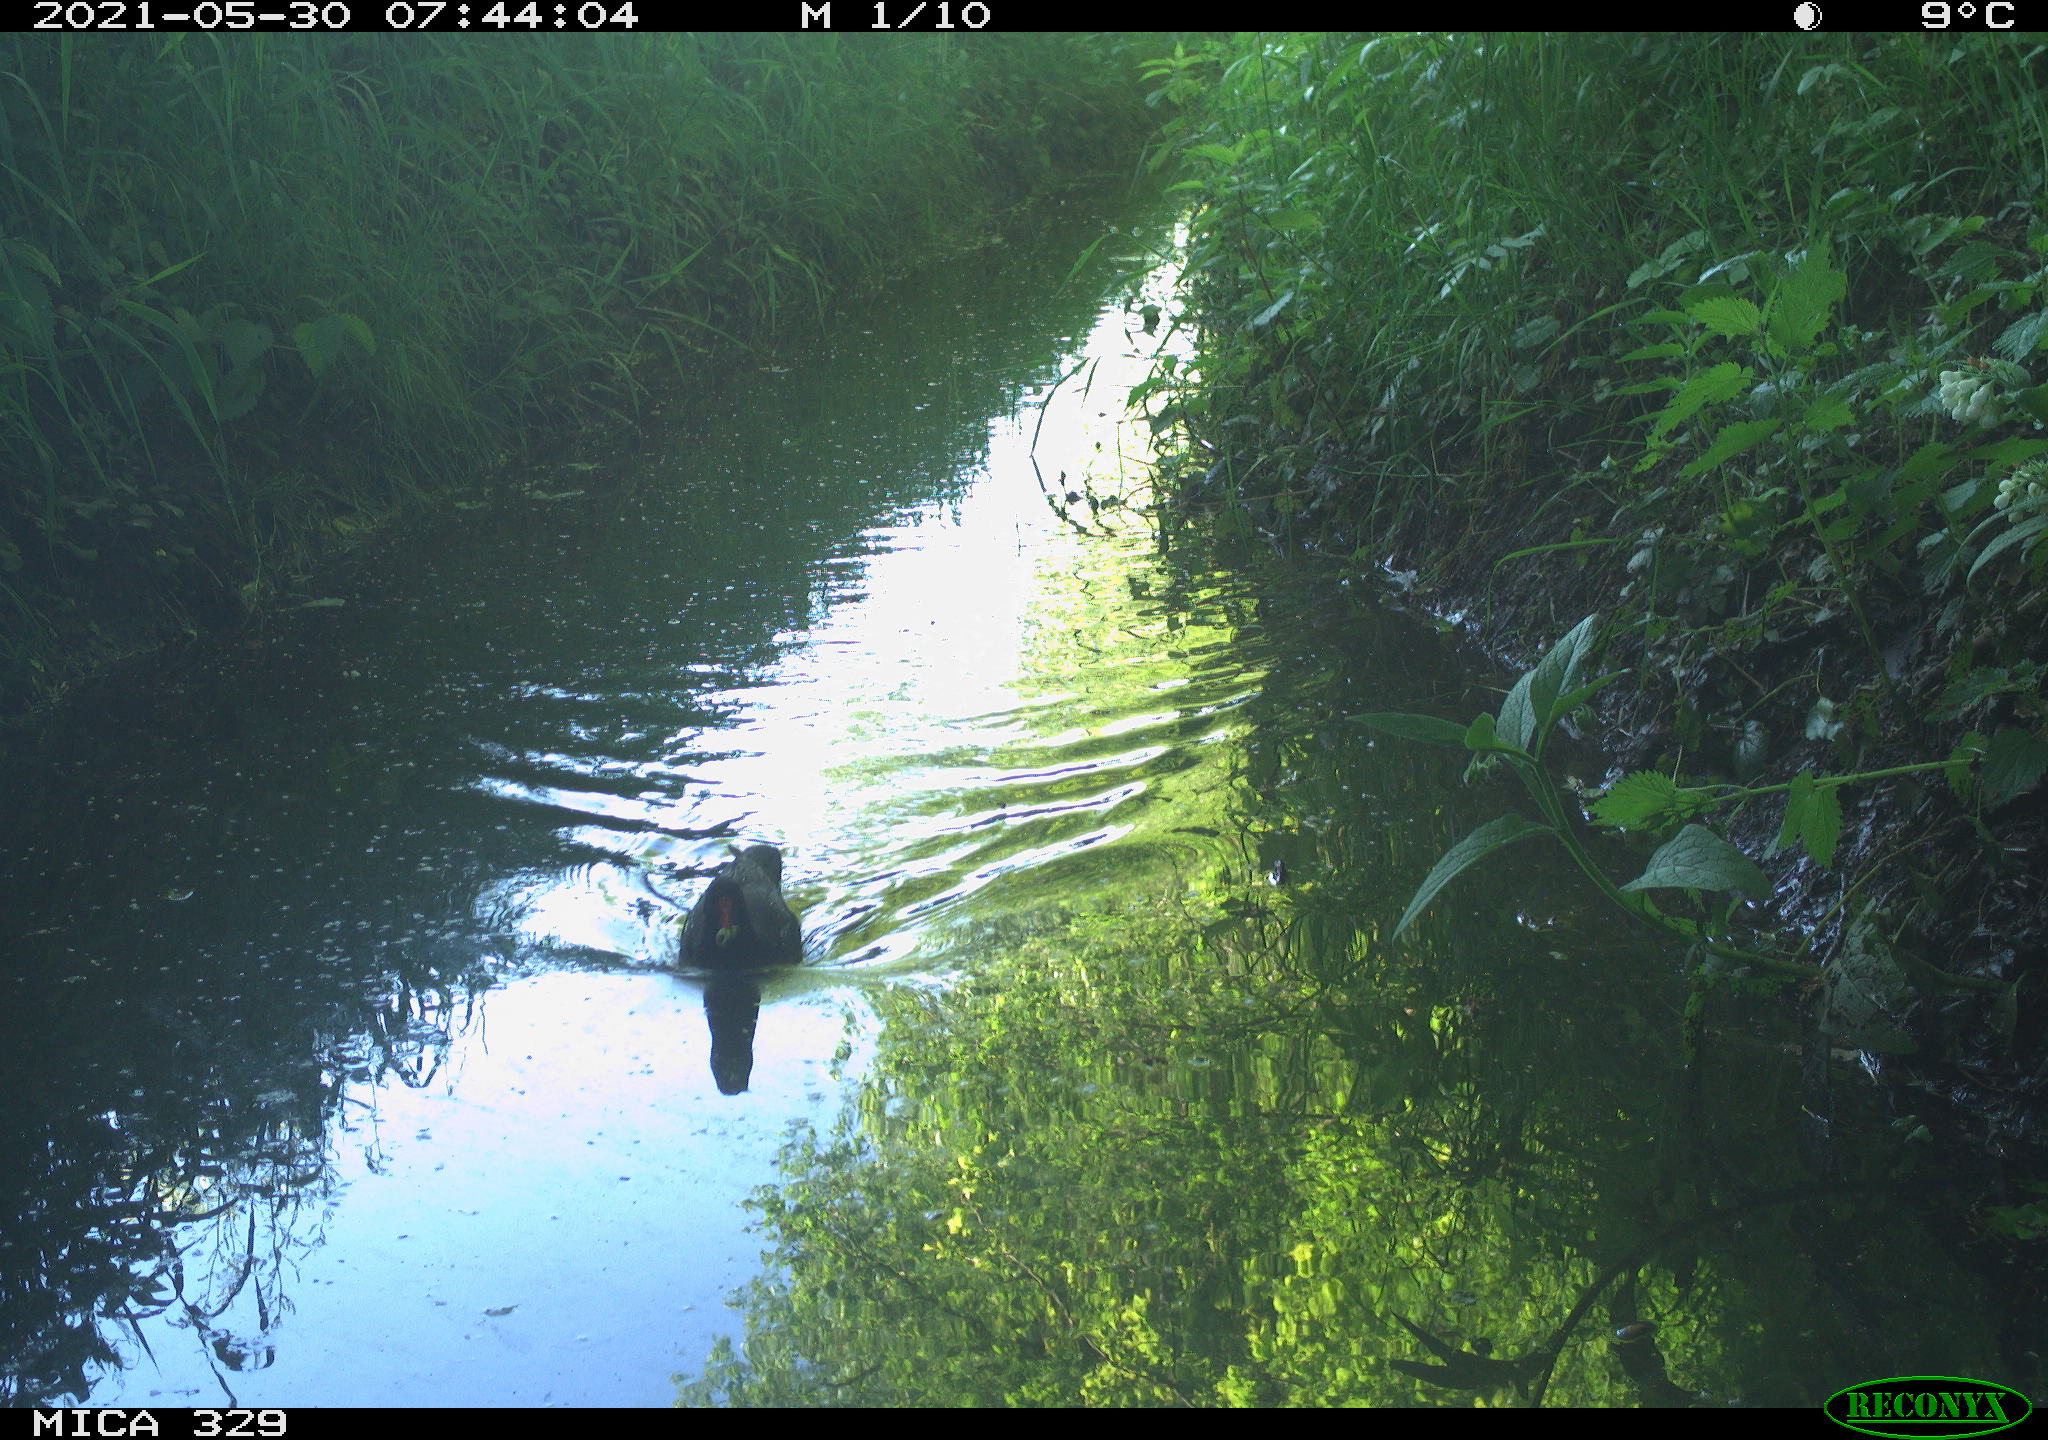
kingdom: Animalia
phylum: Chordata
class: Aves
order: Gruiformes
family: Rallidae
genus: Gallinula
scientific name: Gallinula chloropus
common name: Common moorhen
